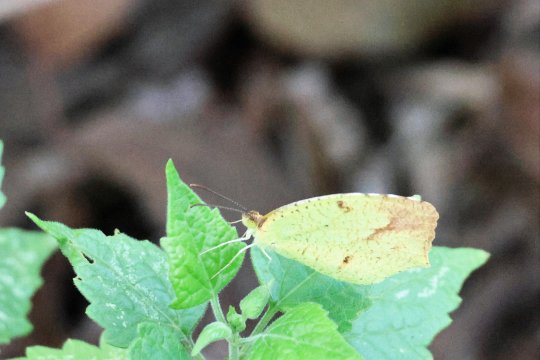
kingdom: Animalia
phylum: Arthropoda
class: Insecta
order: Lepidoptera
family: Pieridae
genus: Eurema
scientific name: Eurema boisduvaliana
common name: Boisduval's Yellow
